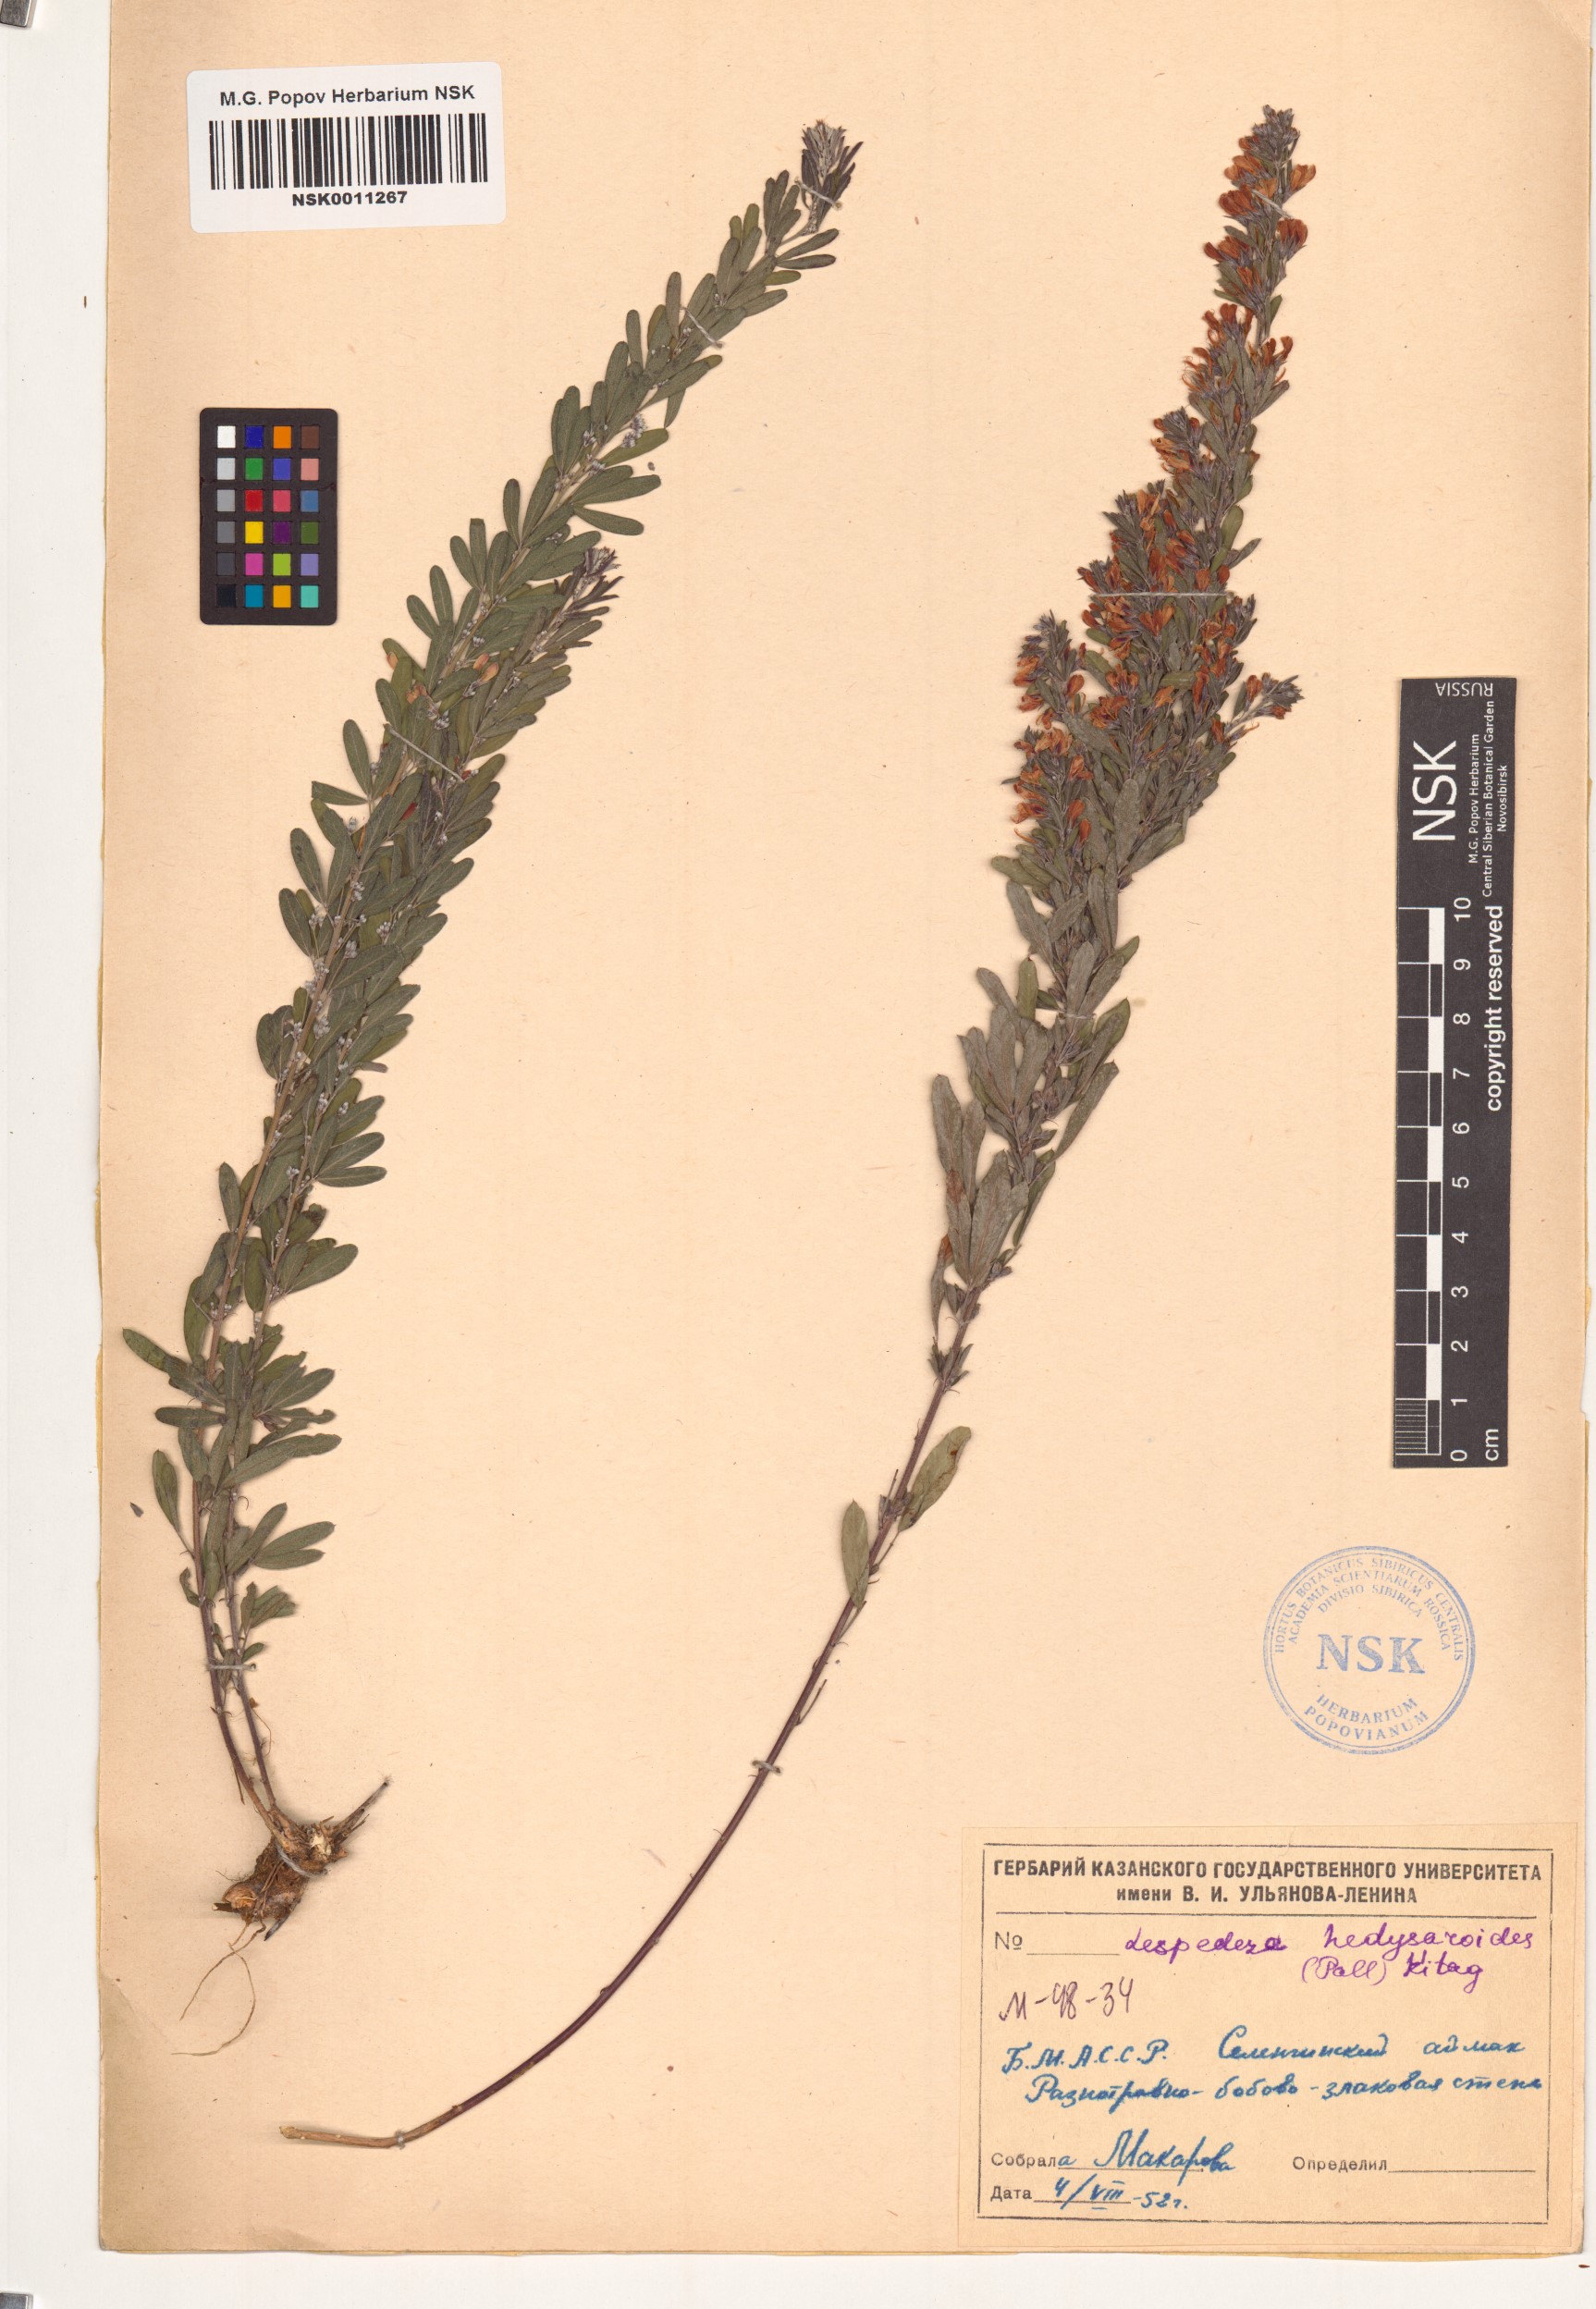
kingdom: Plantae
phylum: Tracheophyta
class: Magnoliopsida
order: Fabales
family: Fabaceae
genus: Lespedeza
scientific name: Lespedeza juncea
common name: Siberian lespedeza
